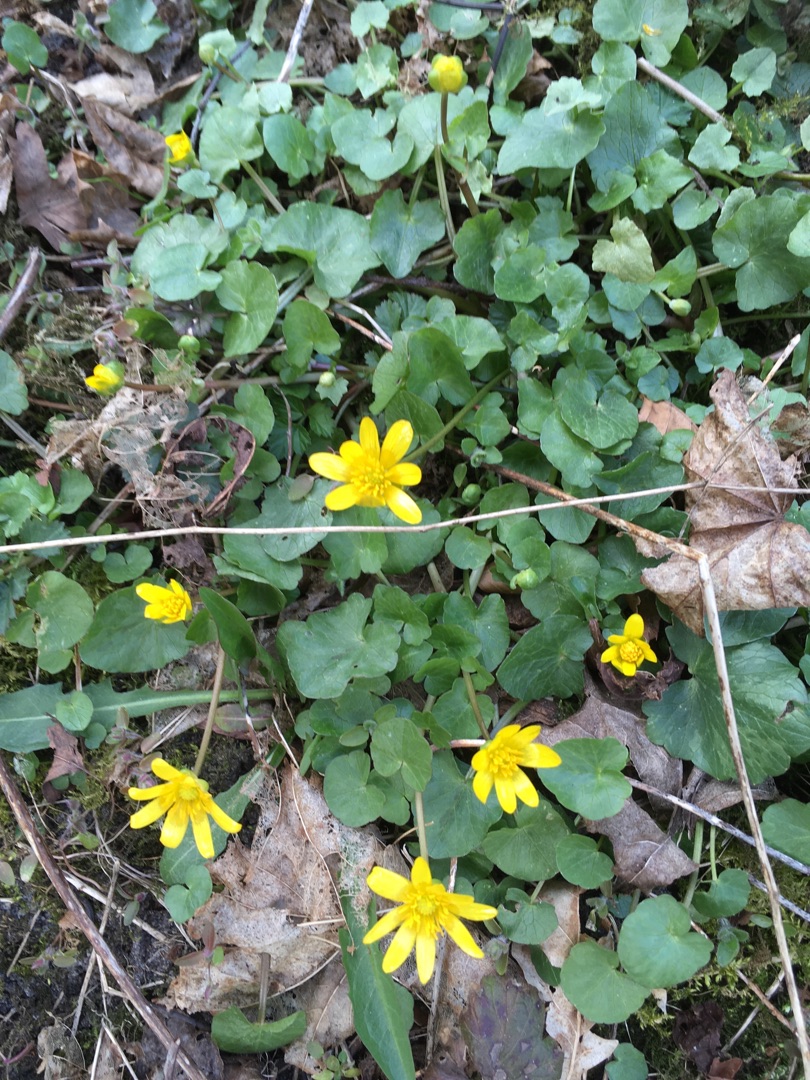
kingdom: Plantae
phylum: Tracheophyta
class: Magnoliopsida
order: Ranunculales
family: Ranunculaceae
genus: Ficaria
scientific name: Ficaria verna
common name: Vorterod
